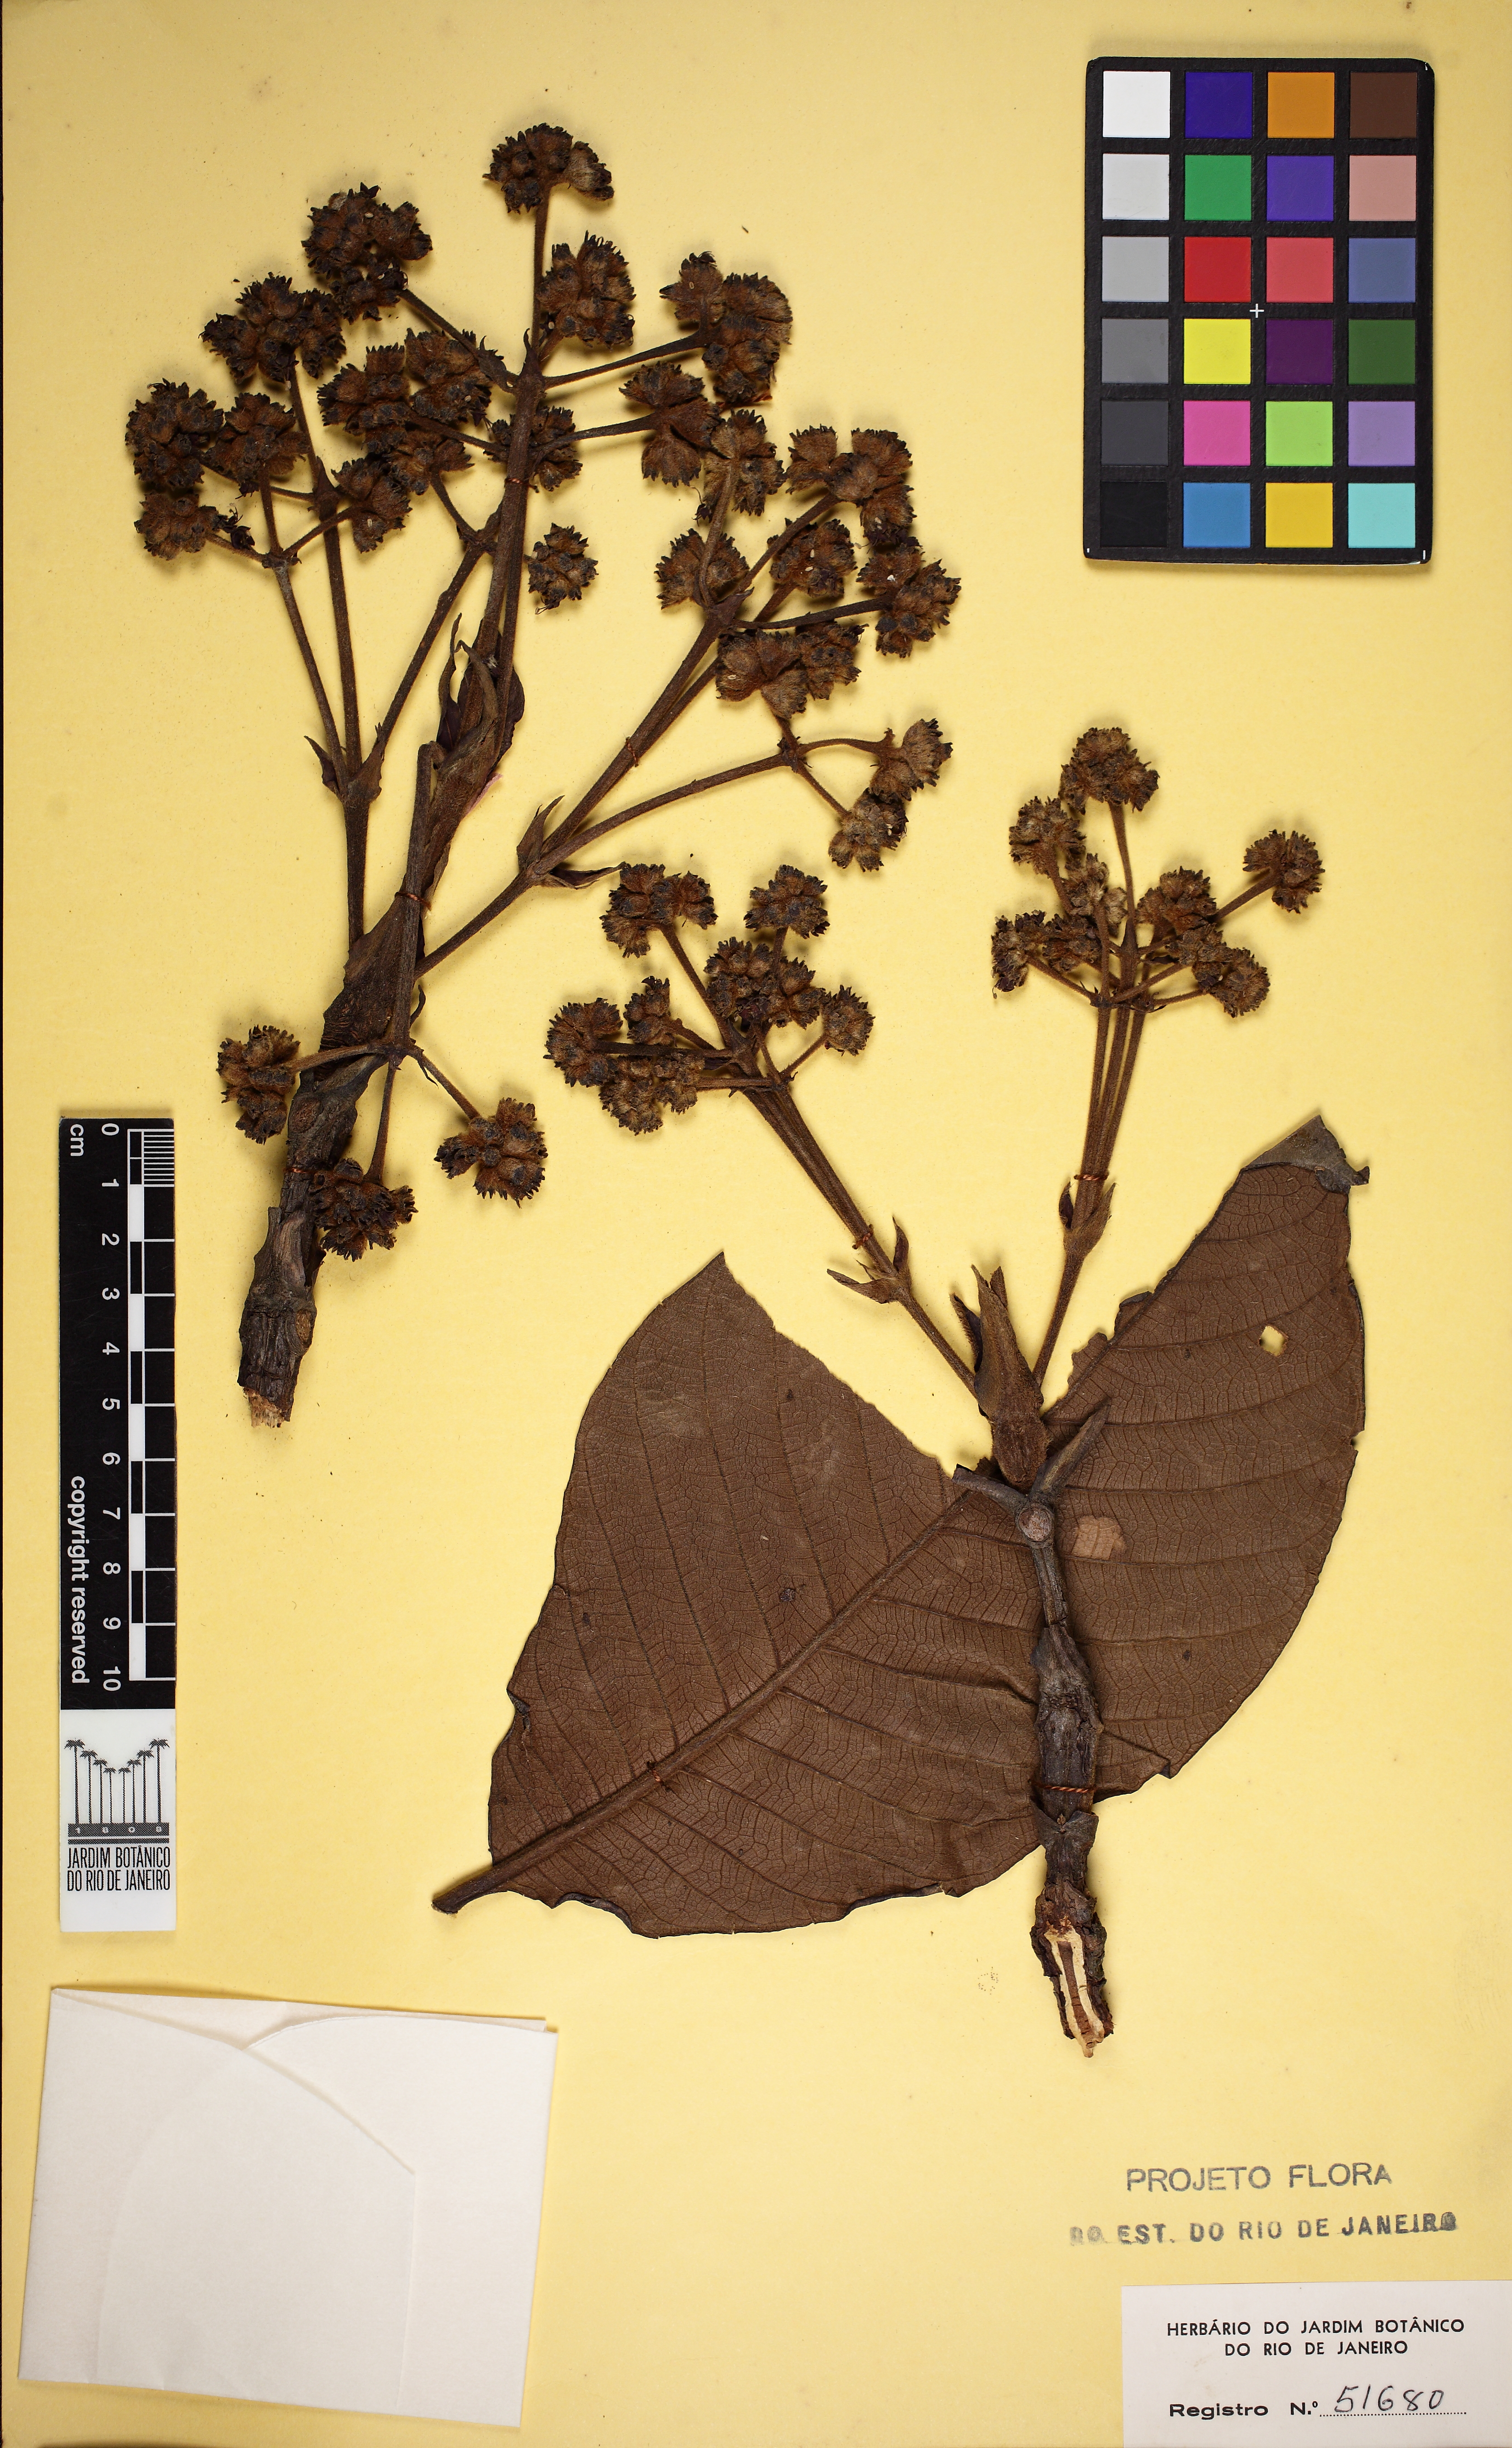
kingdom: Plantae
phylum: Tracheophyta
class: Magnoliopsida
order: Gentianales
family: Rubiaceae
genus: Bathysa
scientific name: Bathysa nicholsonii
